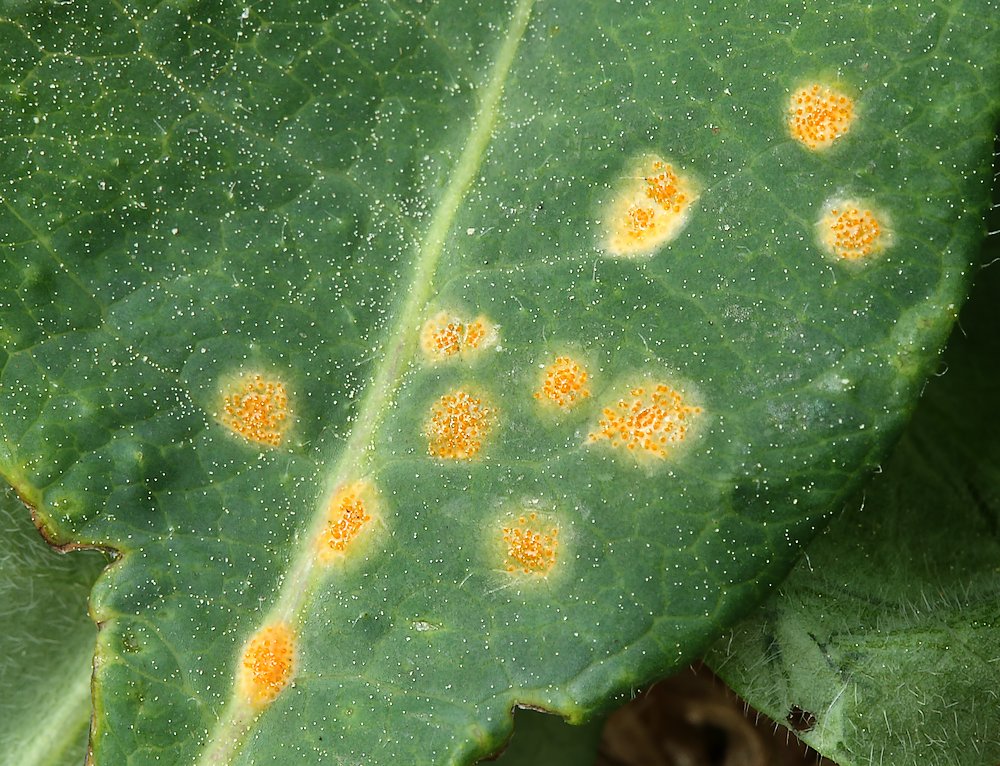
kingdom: Fungi
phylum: Basidiomycota
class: Pucciniomycetes
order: Pucciniales
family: Pucciniaceae
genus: Puccinia
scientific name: Puccinia festucae
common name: gedeblad-tvecellerust
